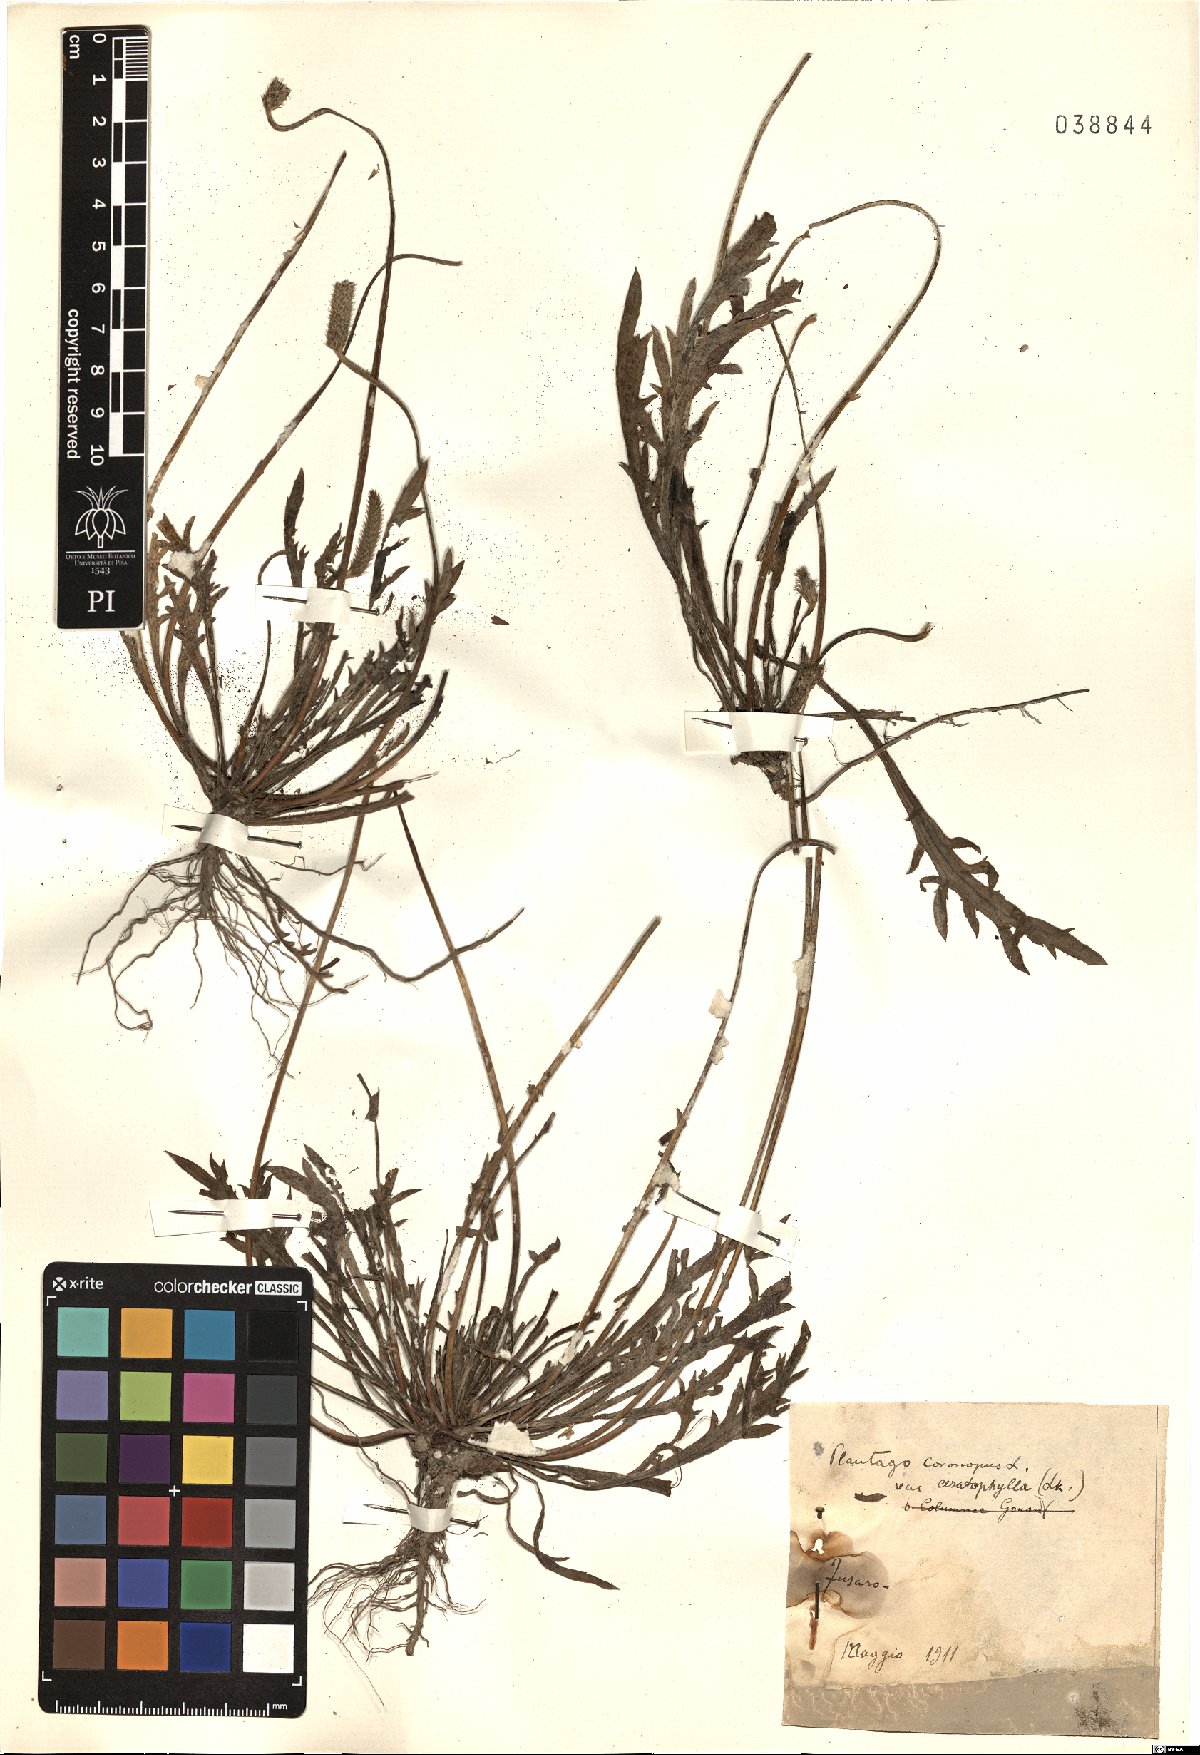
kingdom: Plantae
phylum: Tracheophyta
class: Magnoliopsida
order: Lamiales
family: Plantaginaceae
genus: Plantago
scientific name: Plantago coronopus
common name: Buck's-horn plantain
